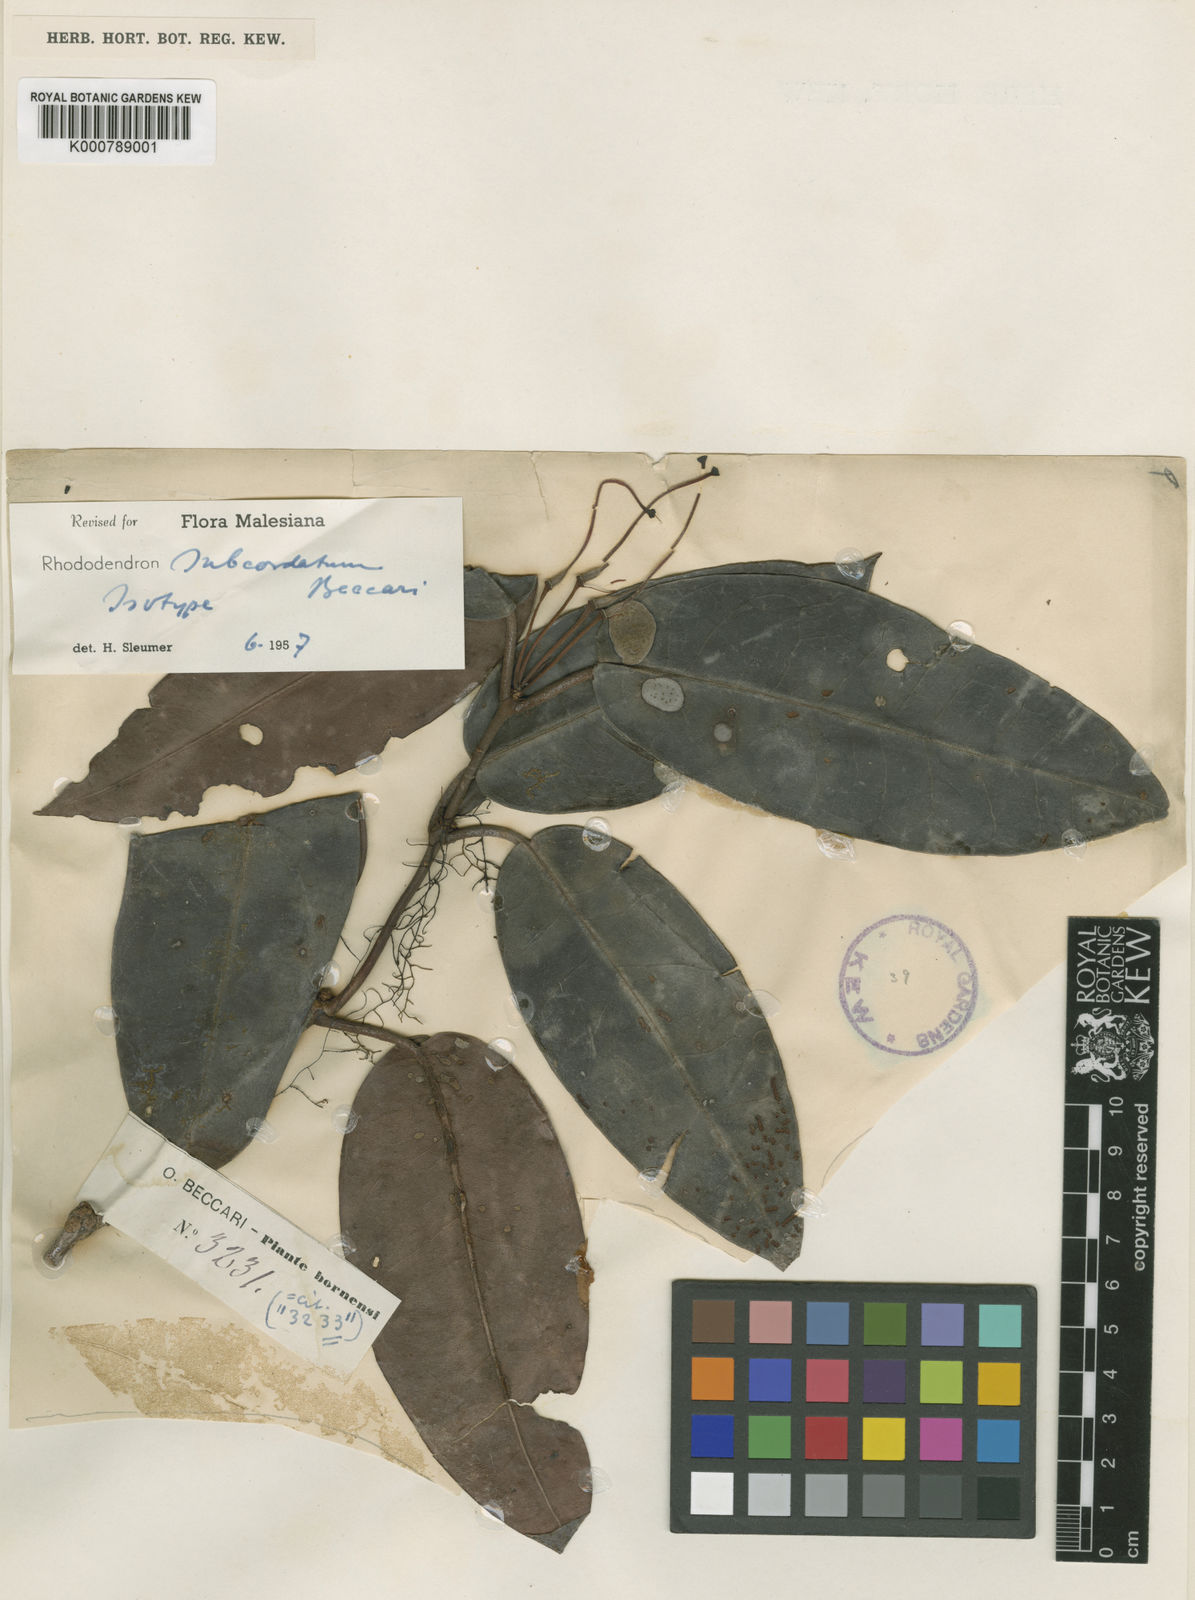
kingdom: Plantae
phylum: Tracheophyta
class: Magnoliopsida
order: Ericales
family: Ericaceae
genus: Rhododendron
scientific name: Rhododendron longiflorum
